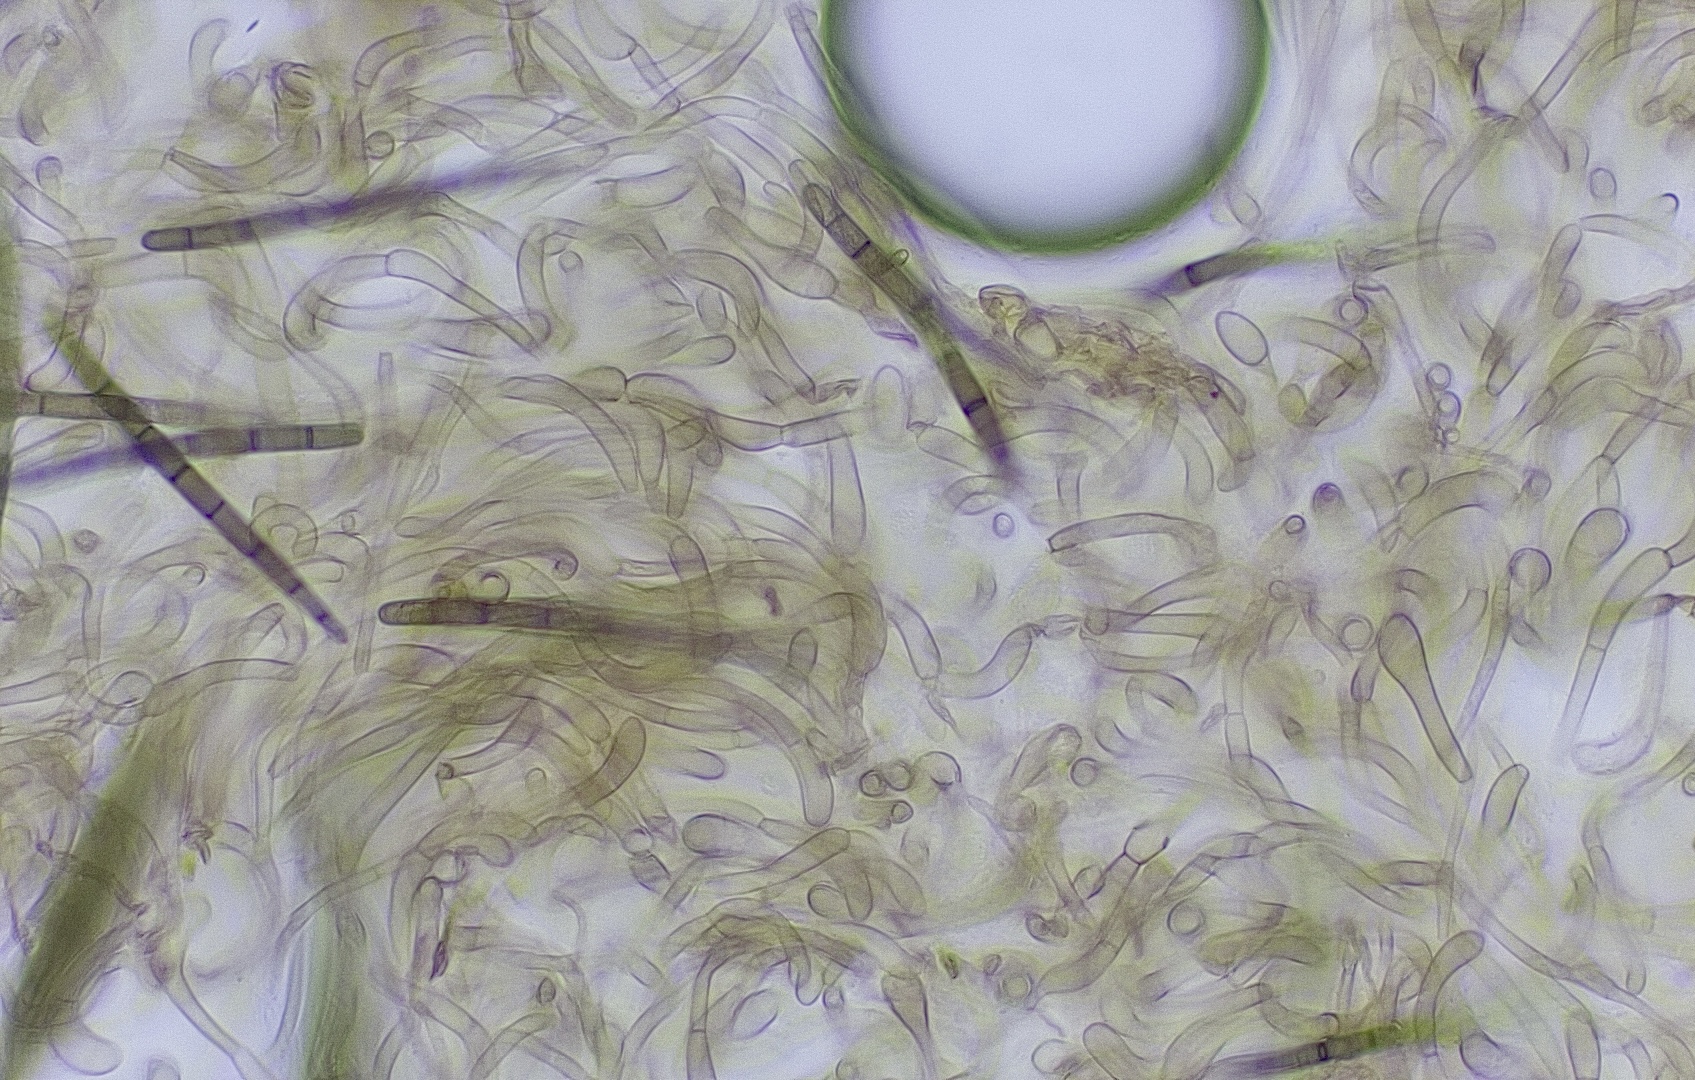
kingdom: Fungi
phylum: Ascomycota
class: Geoglossomycetes
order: Geoglossales
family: Geoglossaceae
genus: Geoglossum
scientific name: Geoglossum umbratile
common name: slank jordtunge
